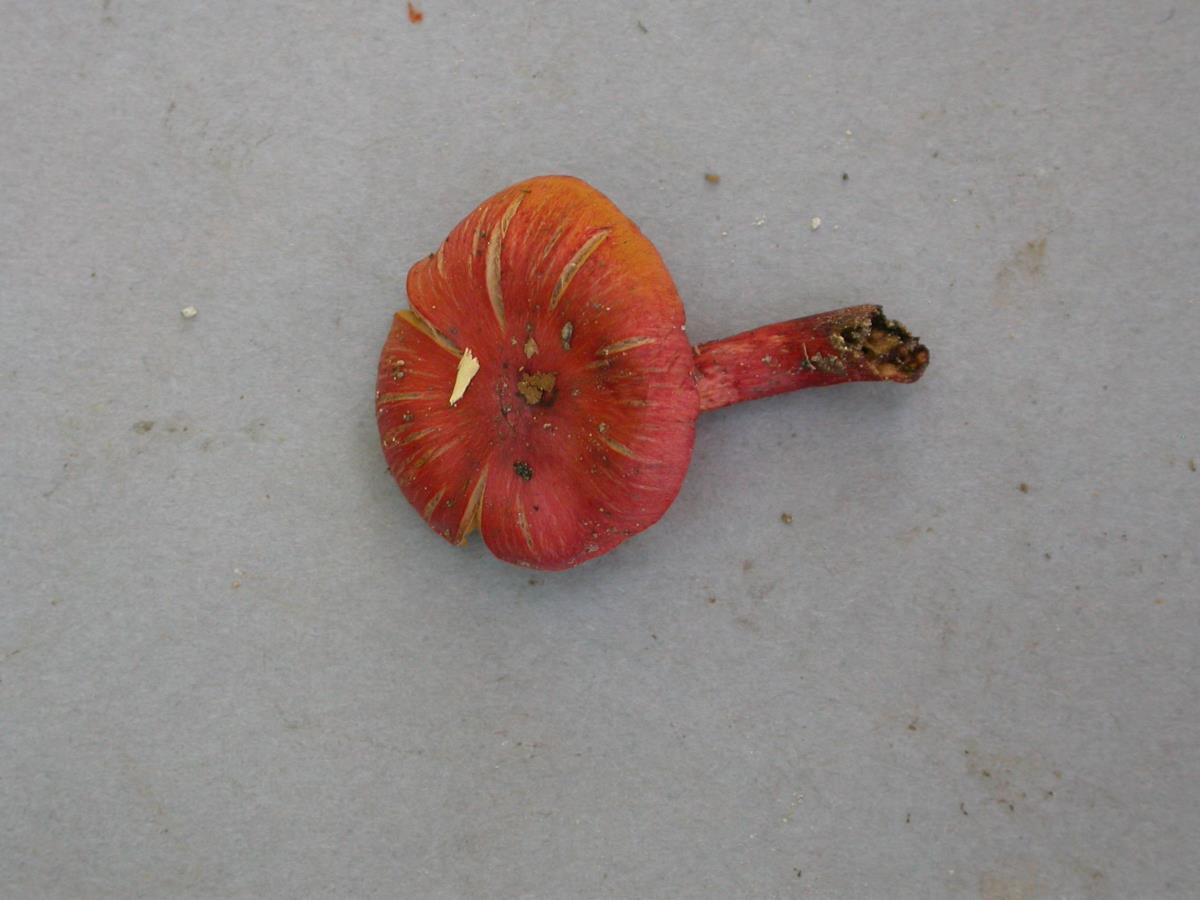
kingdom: Fungi
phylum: Basidiomycota
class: Agaricomycetes
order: Agaricales
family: Cortinariaceae
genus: Cortinarius
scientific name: Cortinarius vinicolor
